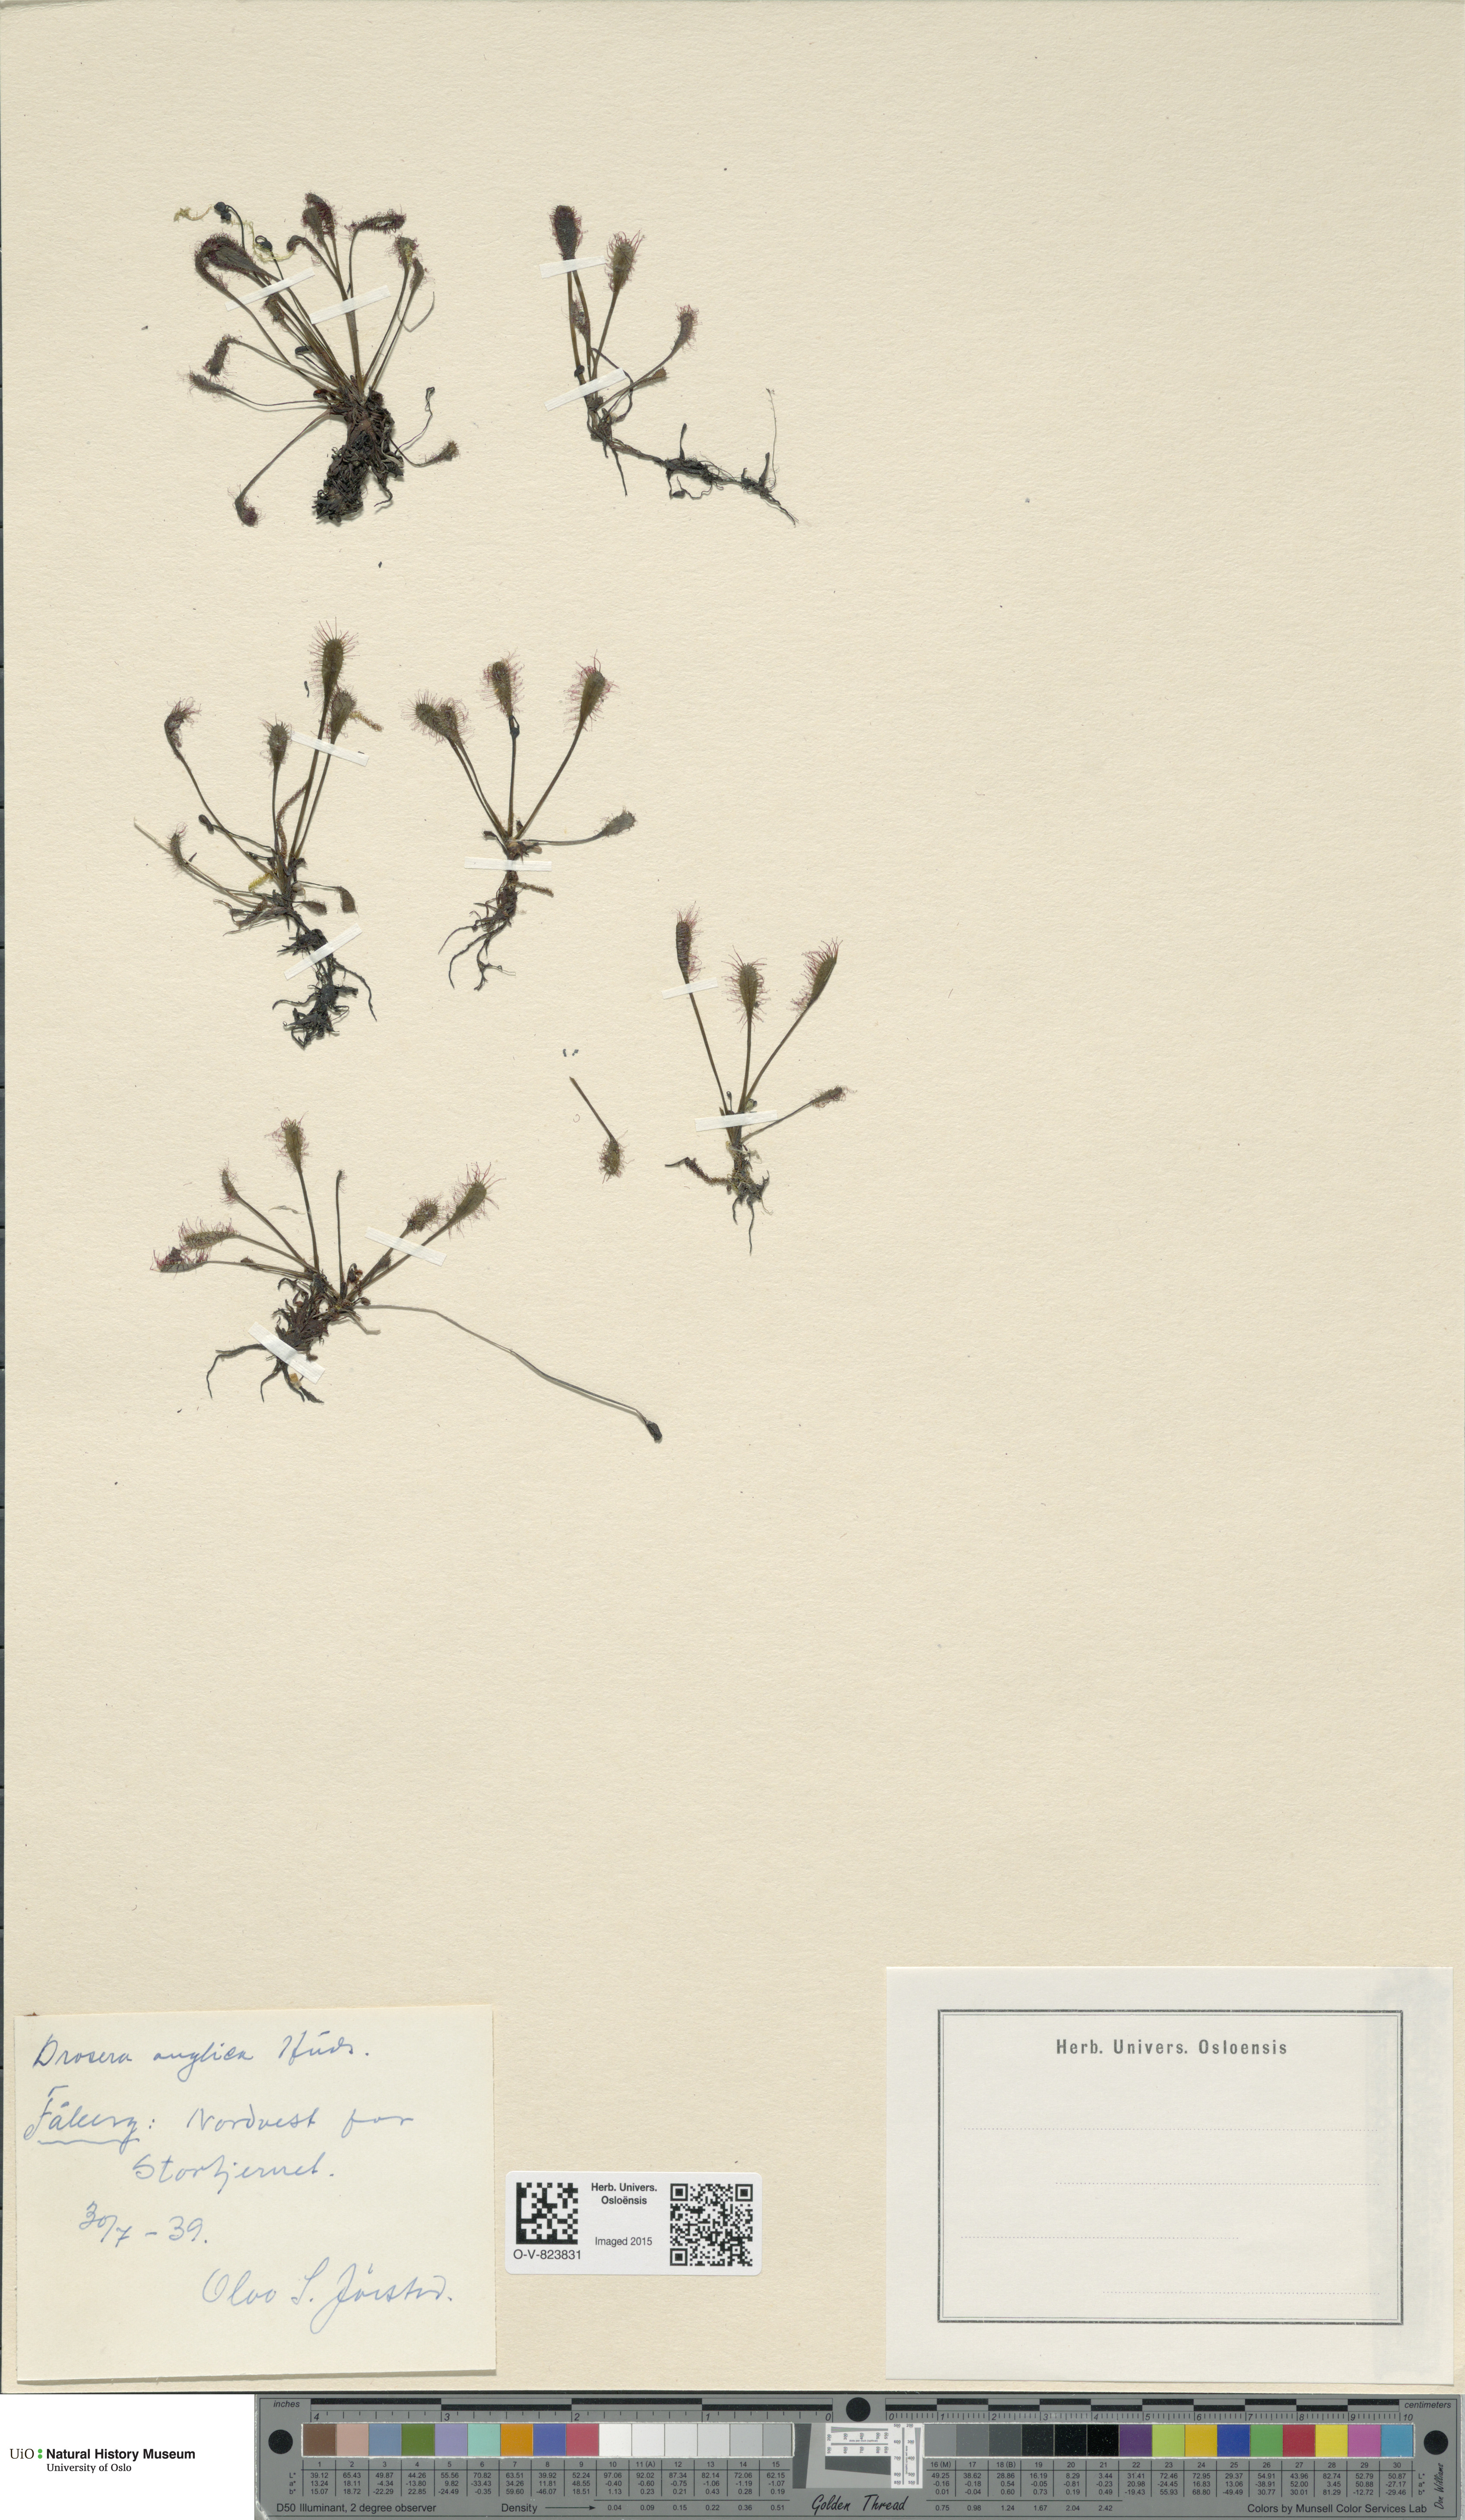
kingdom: Plantae
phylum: Tracheophyta
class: Magnoliopsida
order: Caryophyllales
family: Droseraceae
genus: Drosera
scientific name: Drosera anglica
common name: Great sundew
